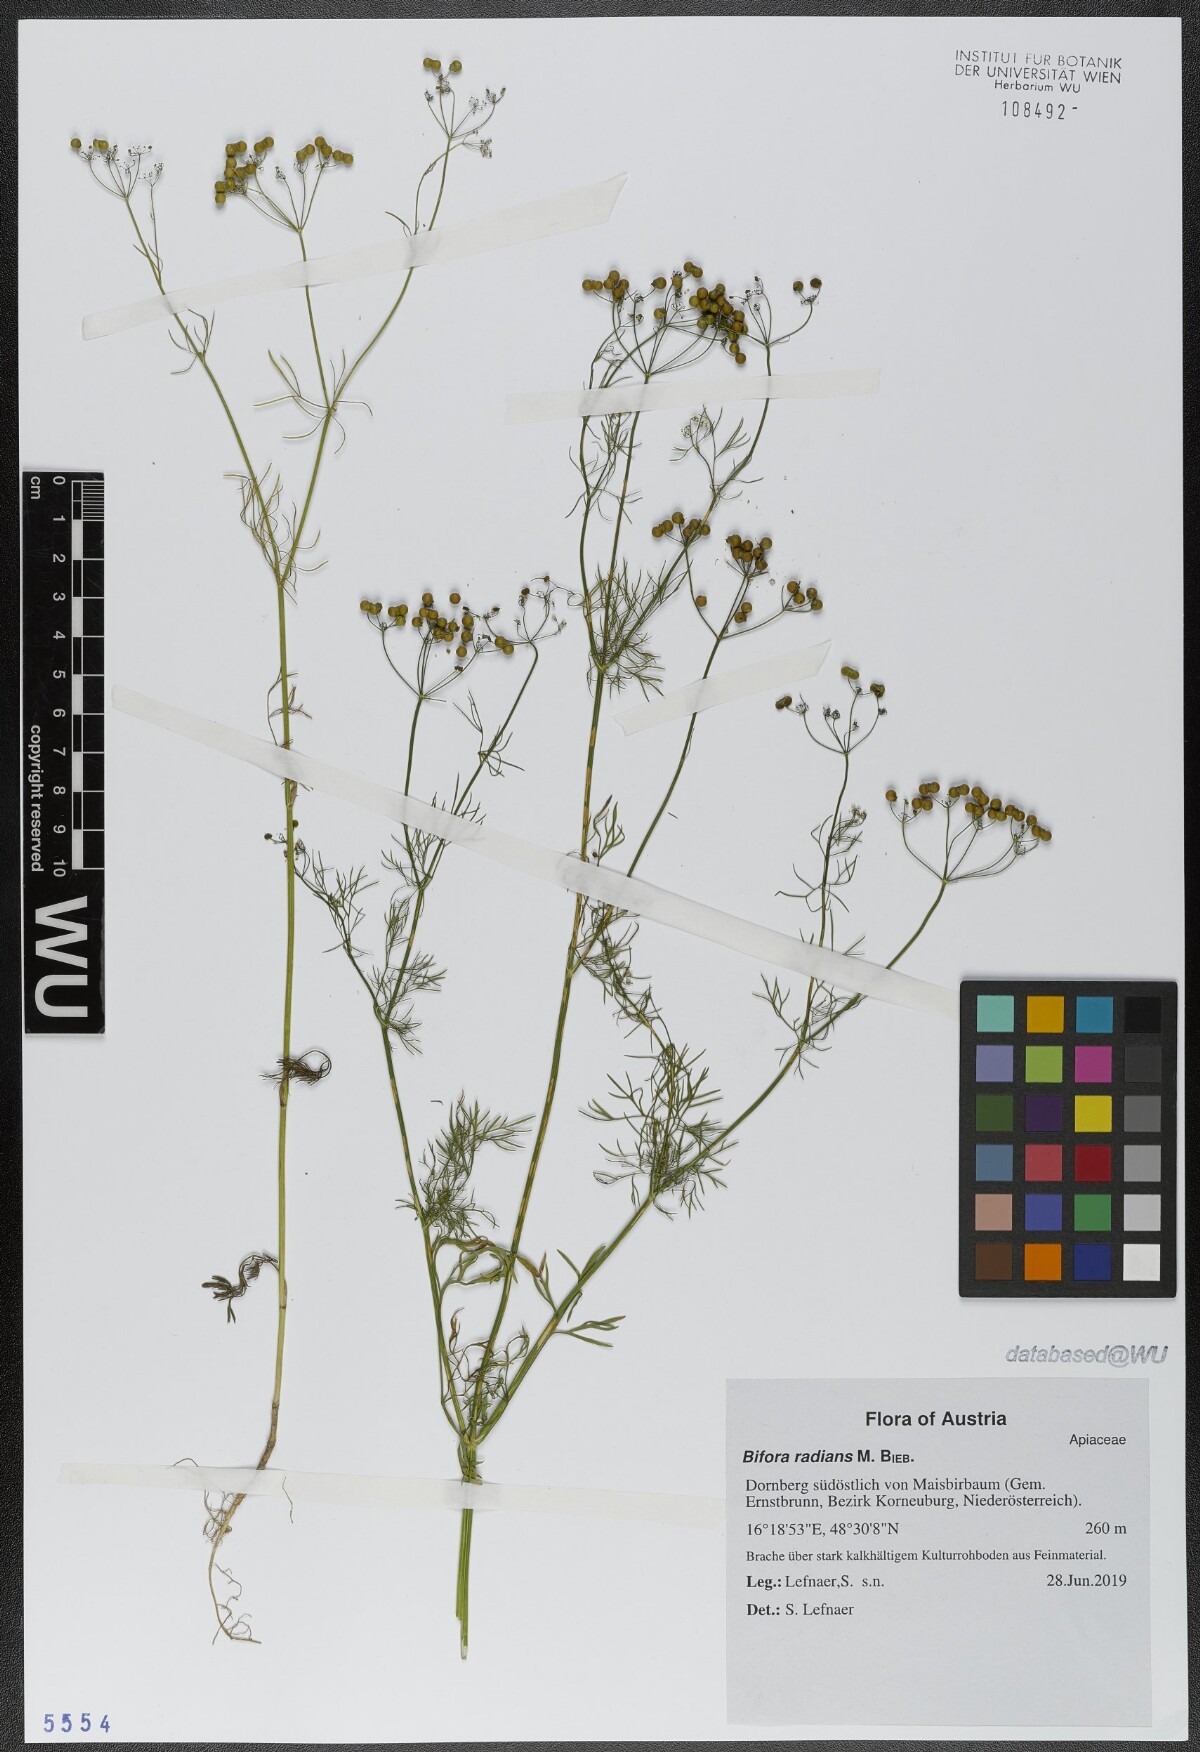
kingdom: Plantae
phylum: Tracheophyta
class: Magnoliopsida
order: Apiales
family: Apiaceae
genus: Bifora
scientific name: Bifora radians
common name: Wild bishop
